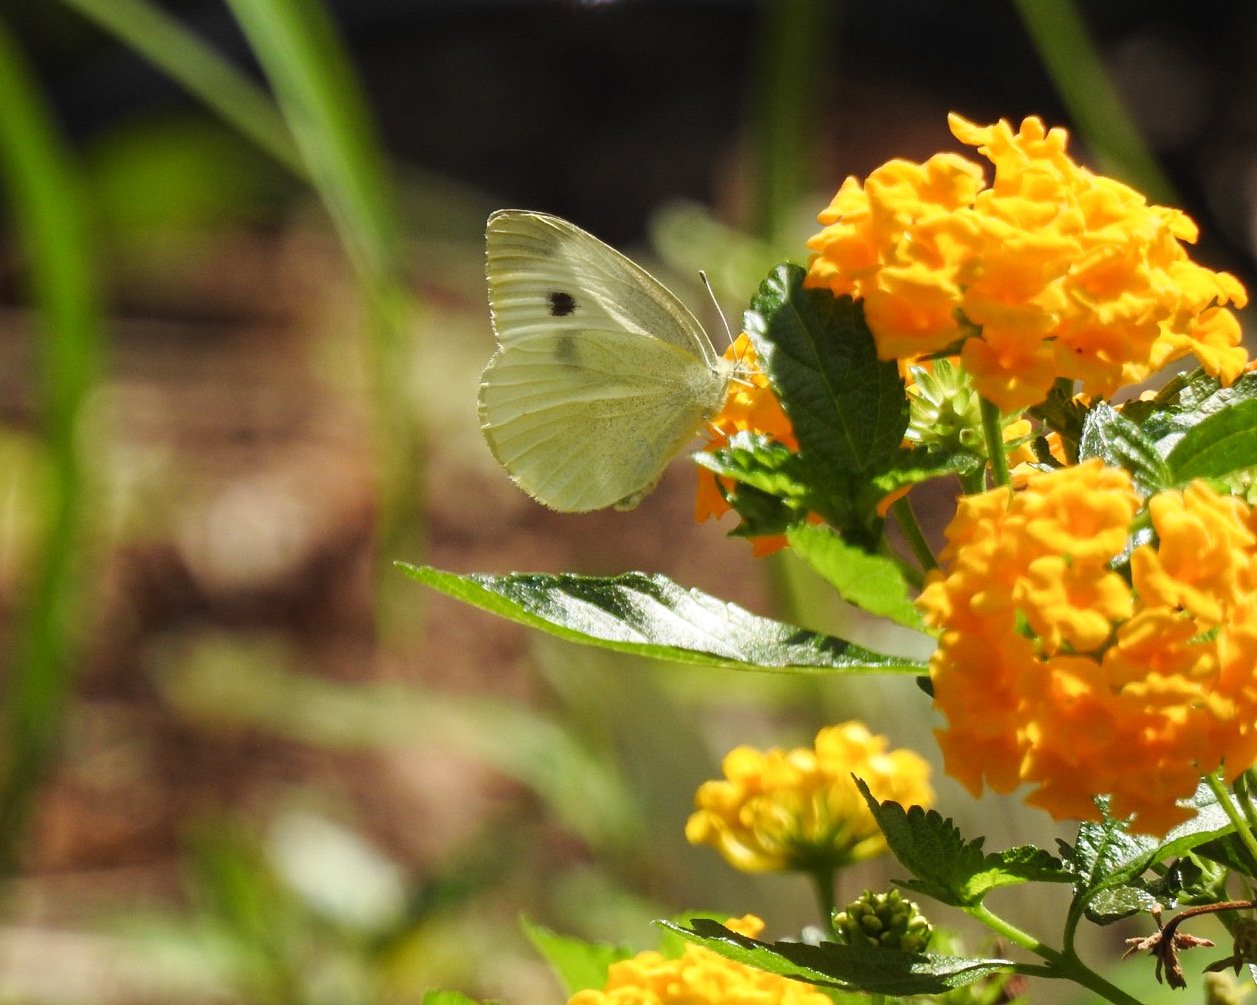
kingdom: Animalia
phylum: Arthropoda
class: Insecta
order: Lepidoptera
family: Pieridae
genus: Pieris
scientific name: Pieris rapae
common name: Cabbage White
